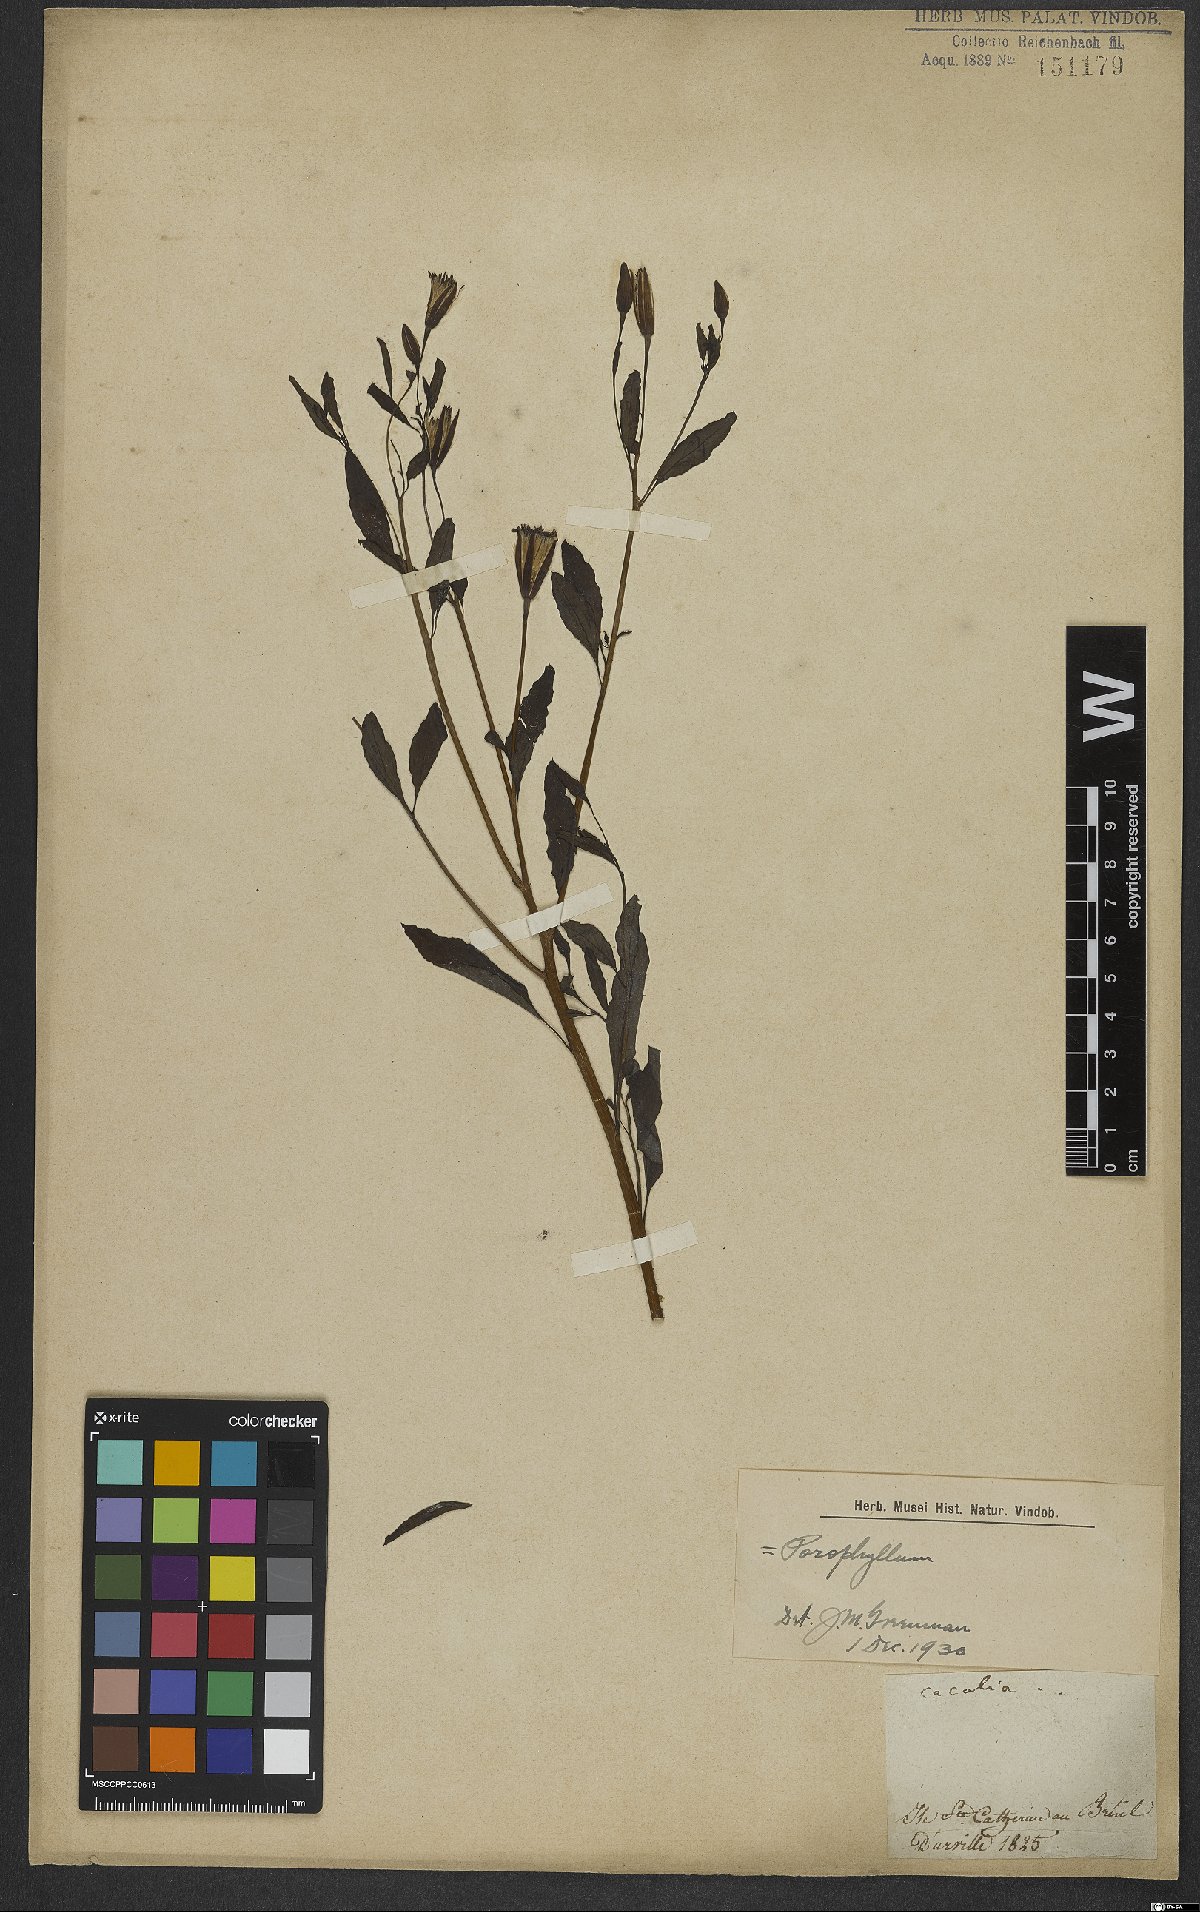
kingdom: Plantae
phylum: Tracheophyta
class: Magnoliopsida
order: Asterales
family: Asteraceae
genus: Porophyllum
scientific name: Porophyllum
